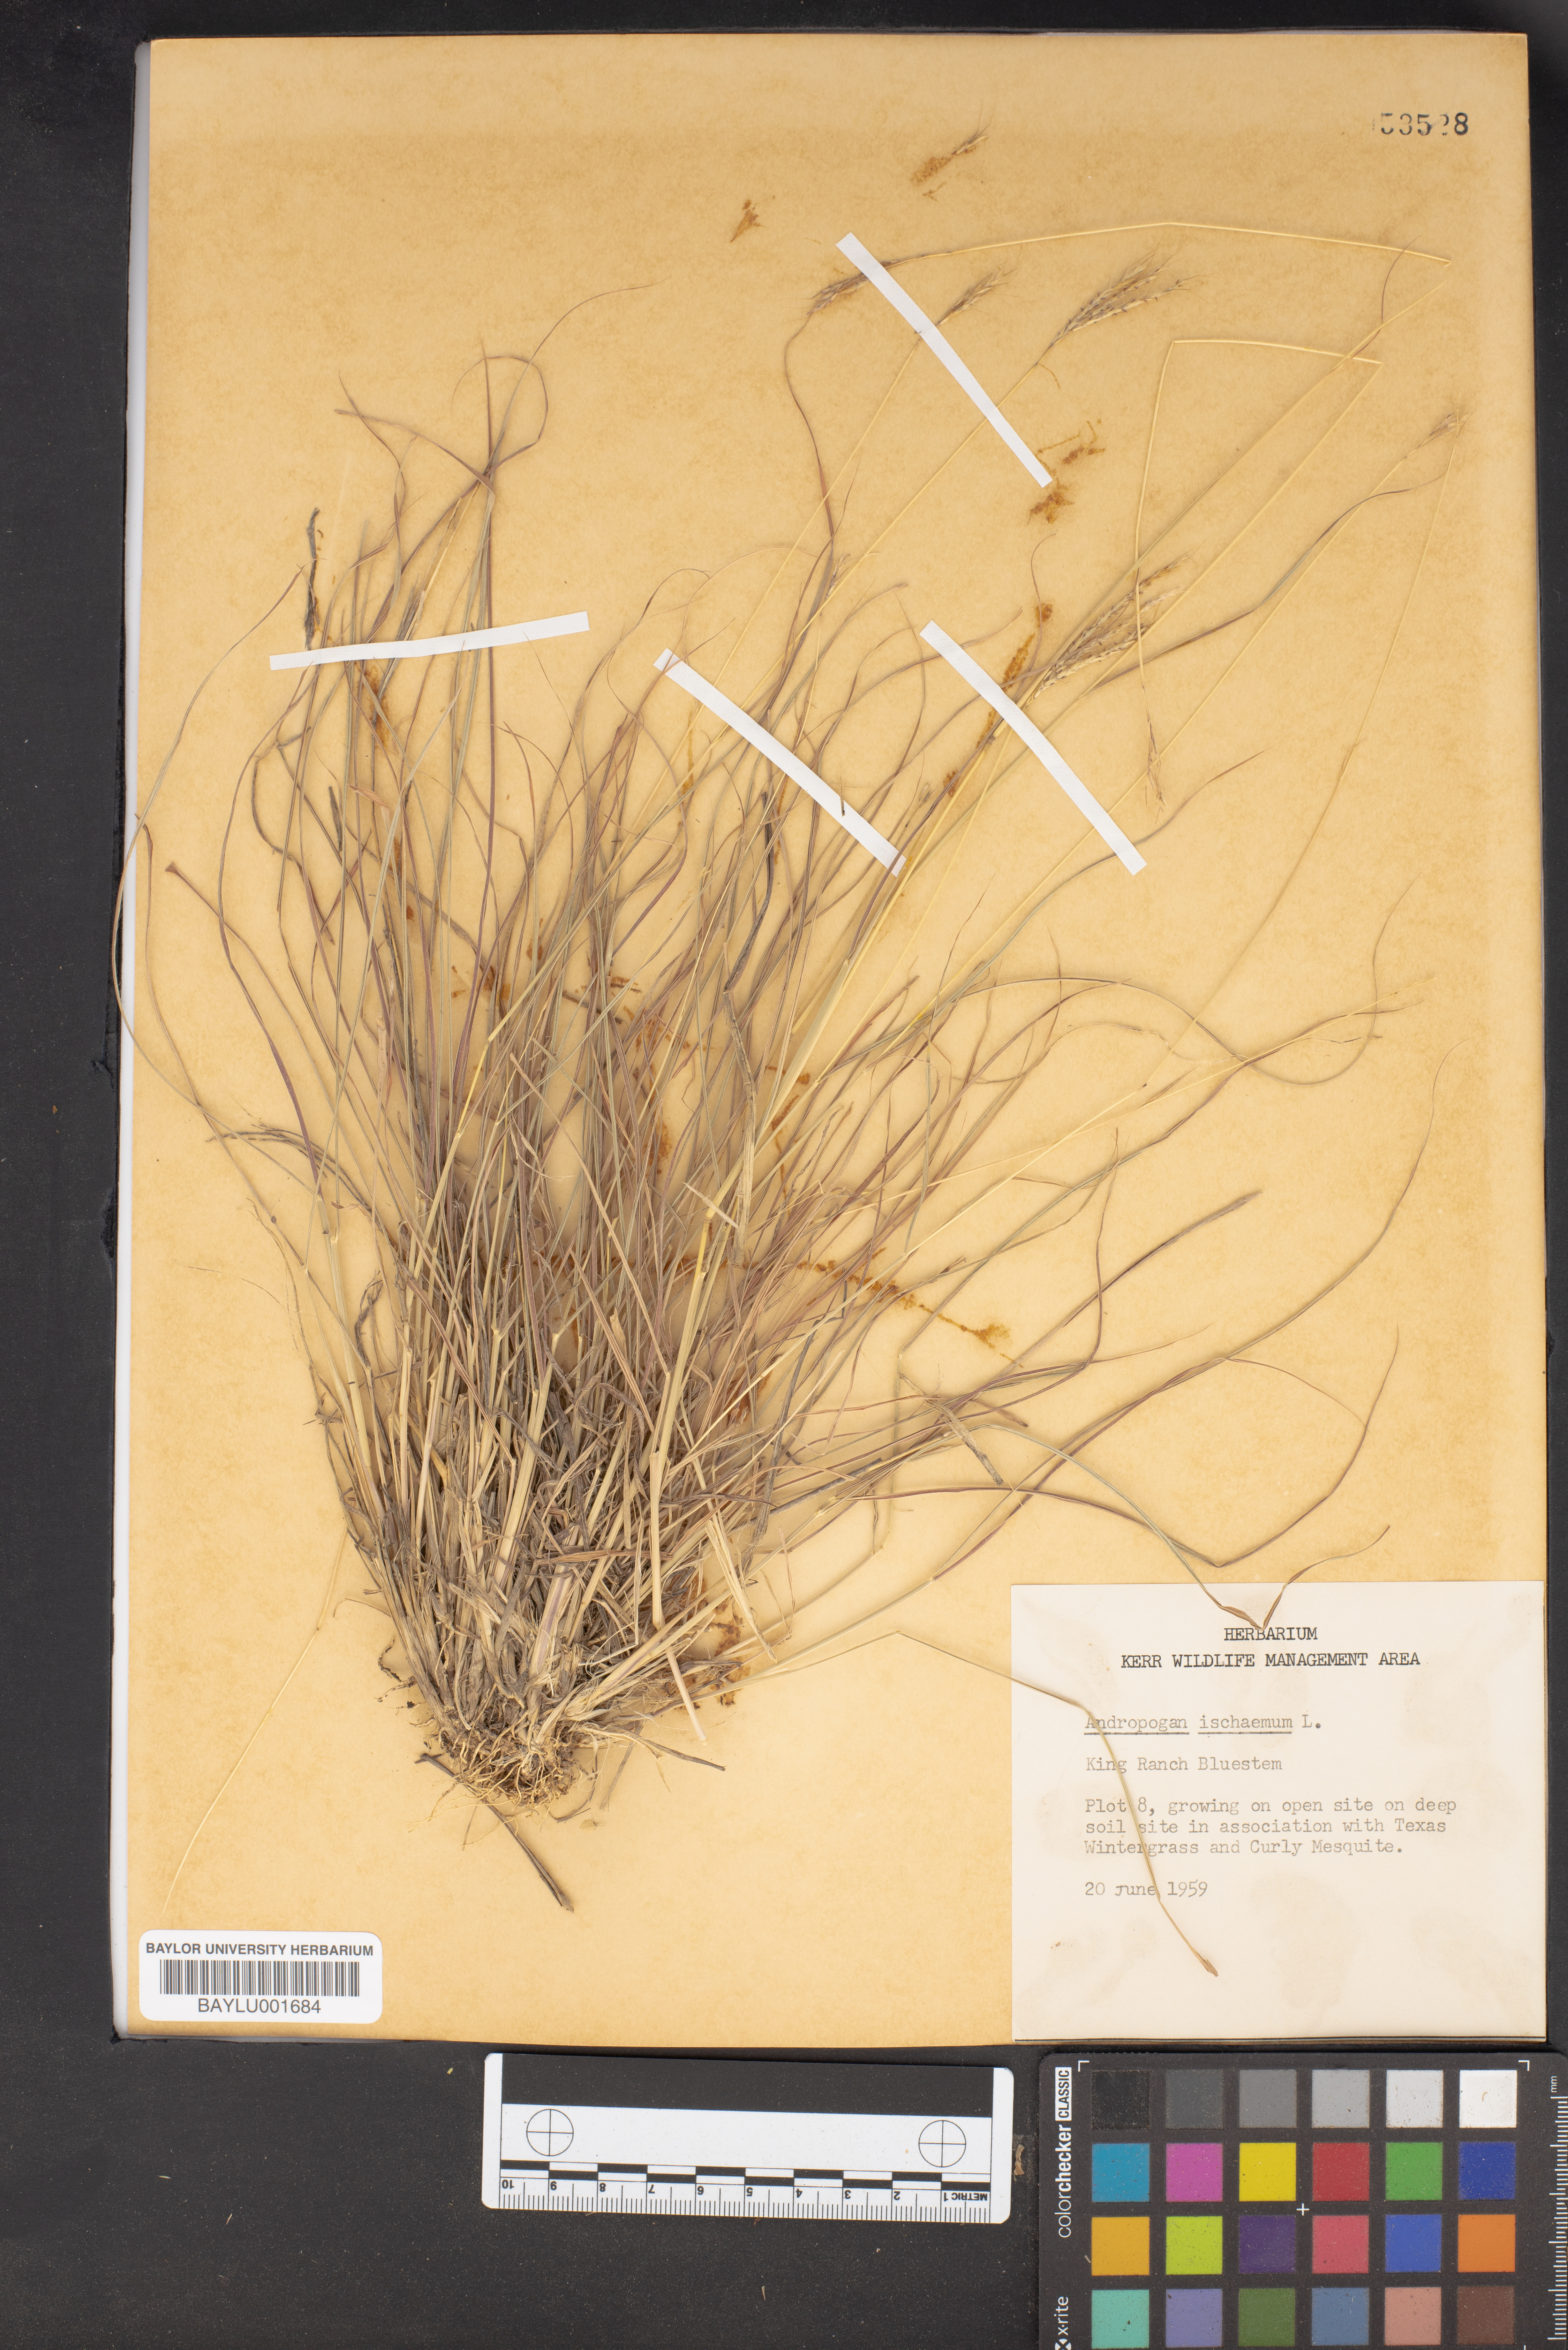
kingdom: Plantae
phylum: Tracheophyta
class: Liliopsida
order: Poales
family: Poaceae
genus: Andropogon
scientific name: Andropogon ischaemum
